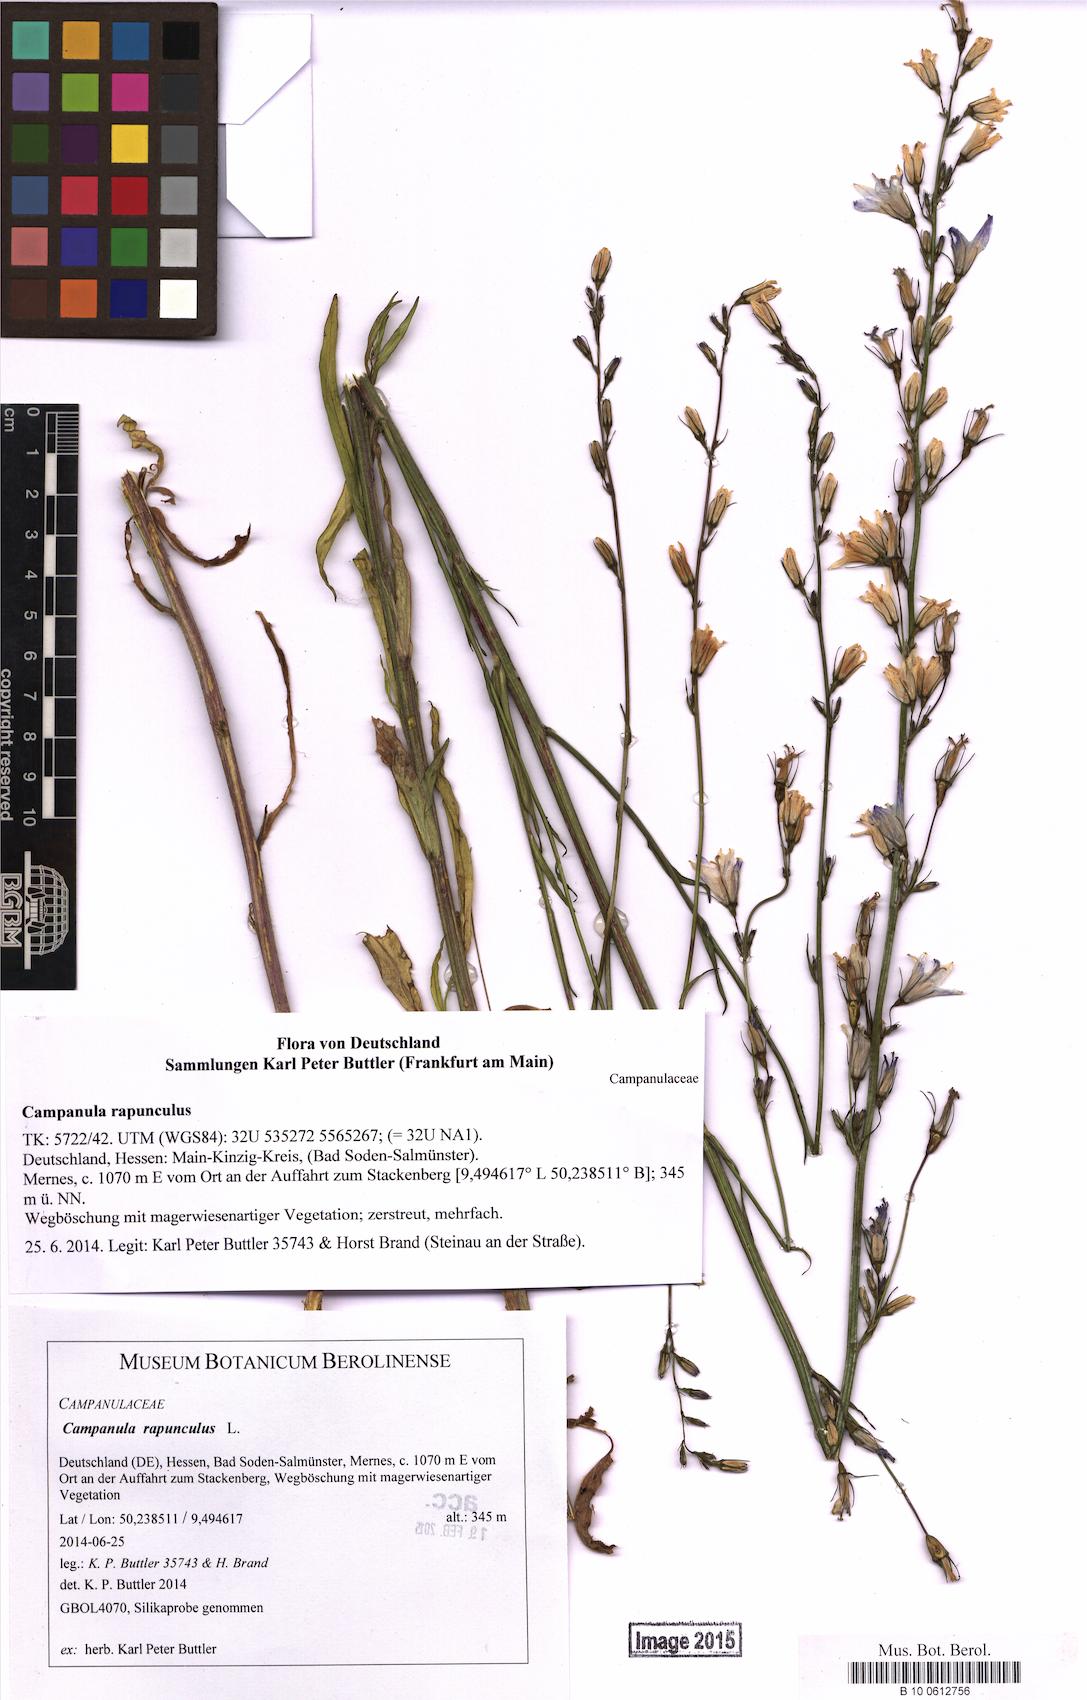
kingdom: Plantae
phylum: Tracheophyta
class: Magnoliopsida
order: Asterales
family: Campanulaceae
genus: Campanula
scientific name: Campanula rapunculus
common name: Rampion bellflower
